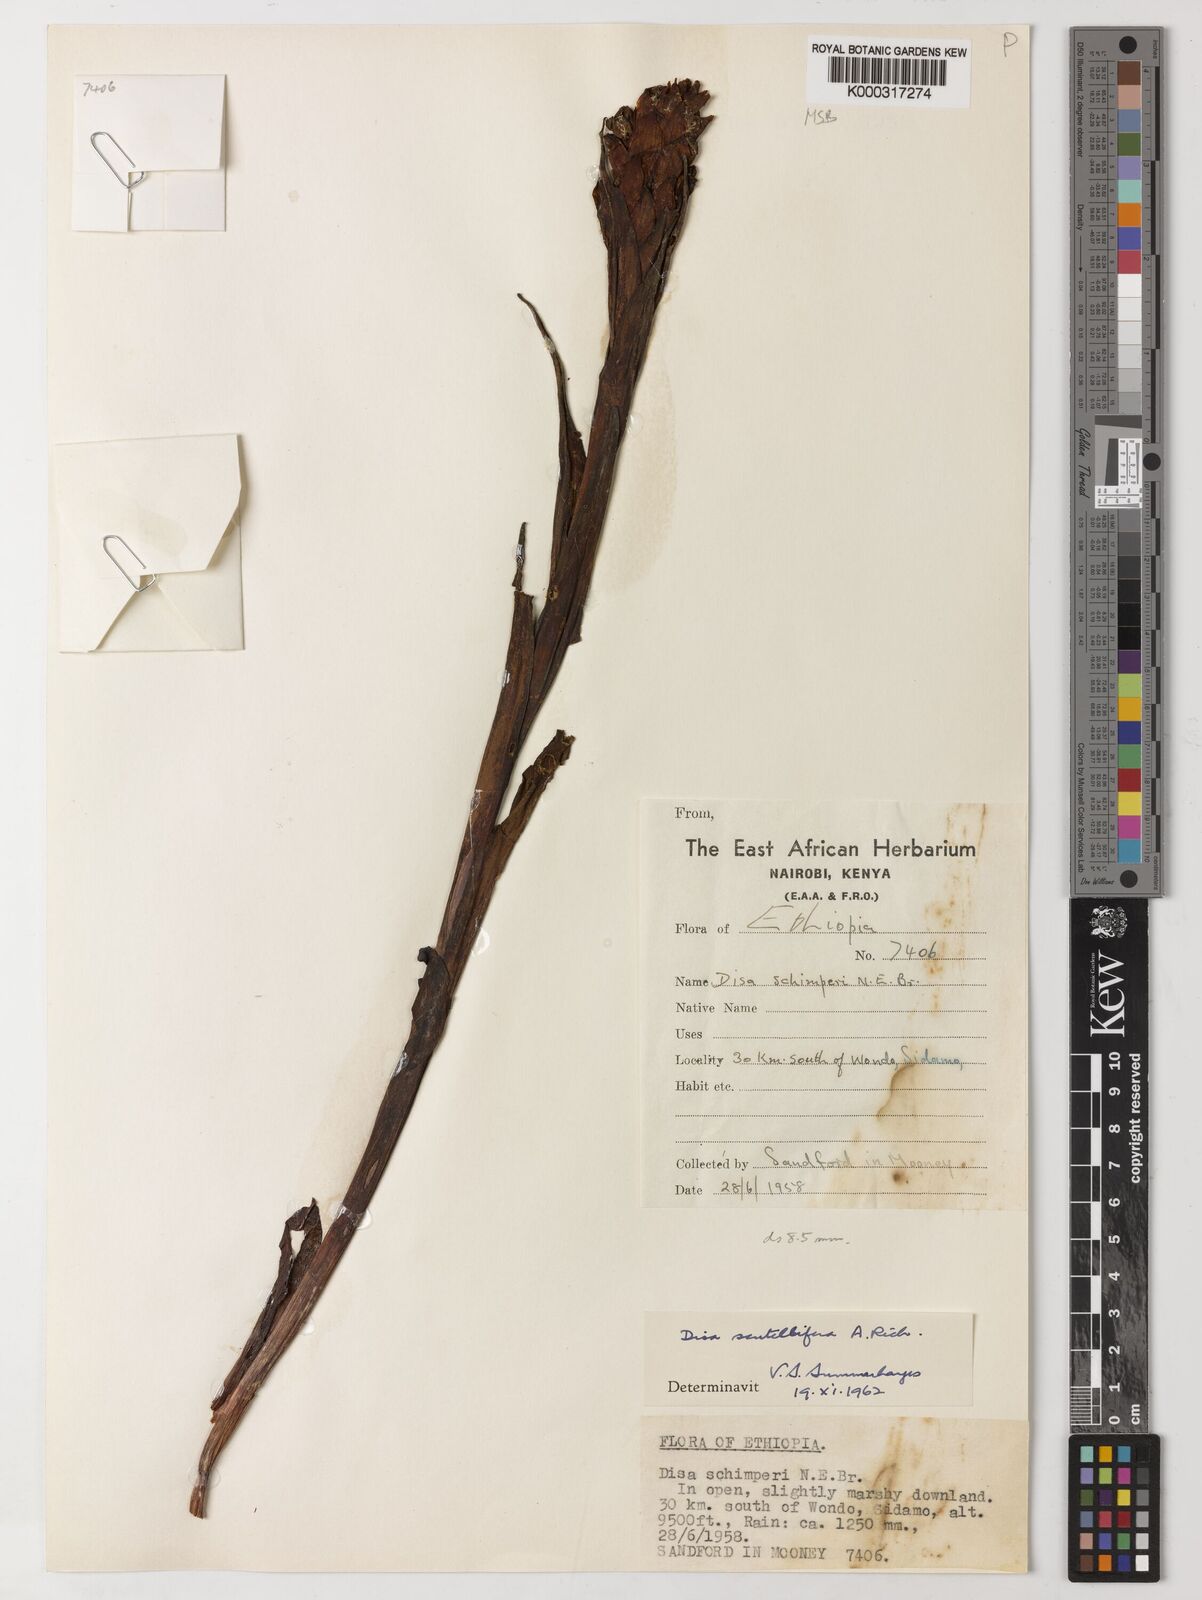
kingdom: Plantae
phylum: Tracheophyta
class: Liliopsida
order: Asparagales
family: Orchidaceae
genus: Disa
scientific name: Disa scutellifera
